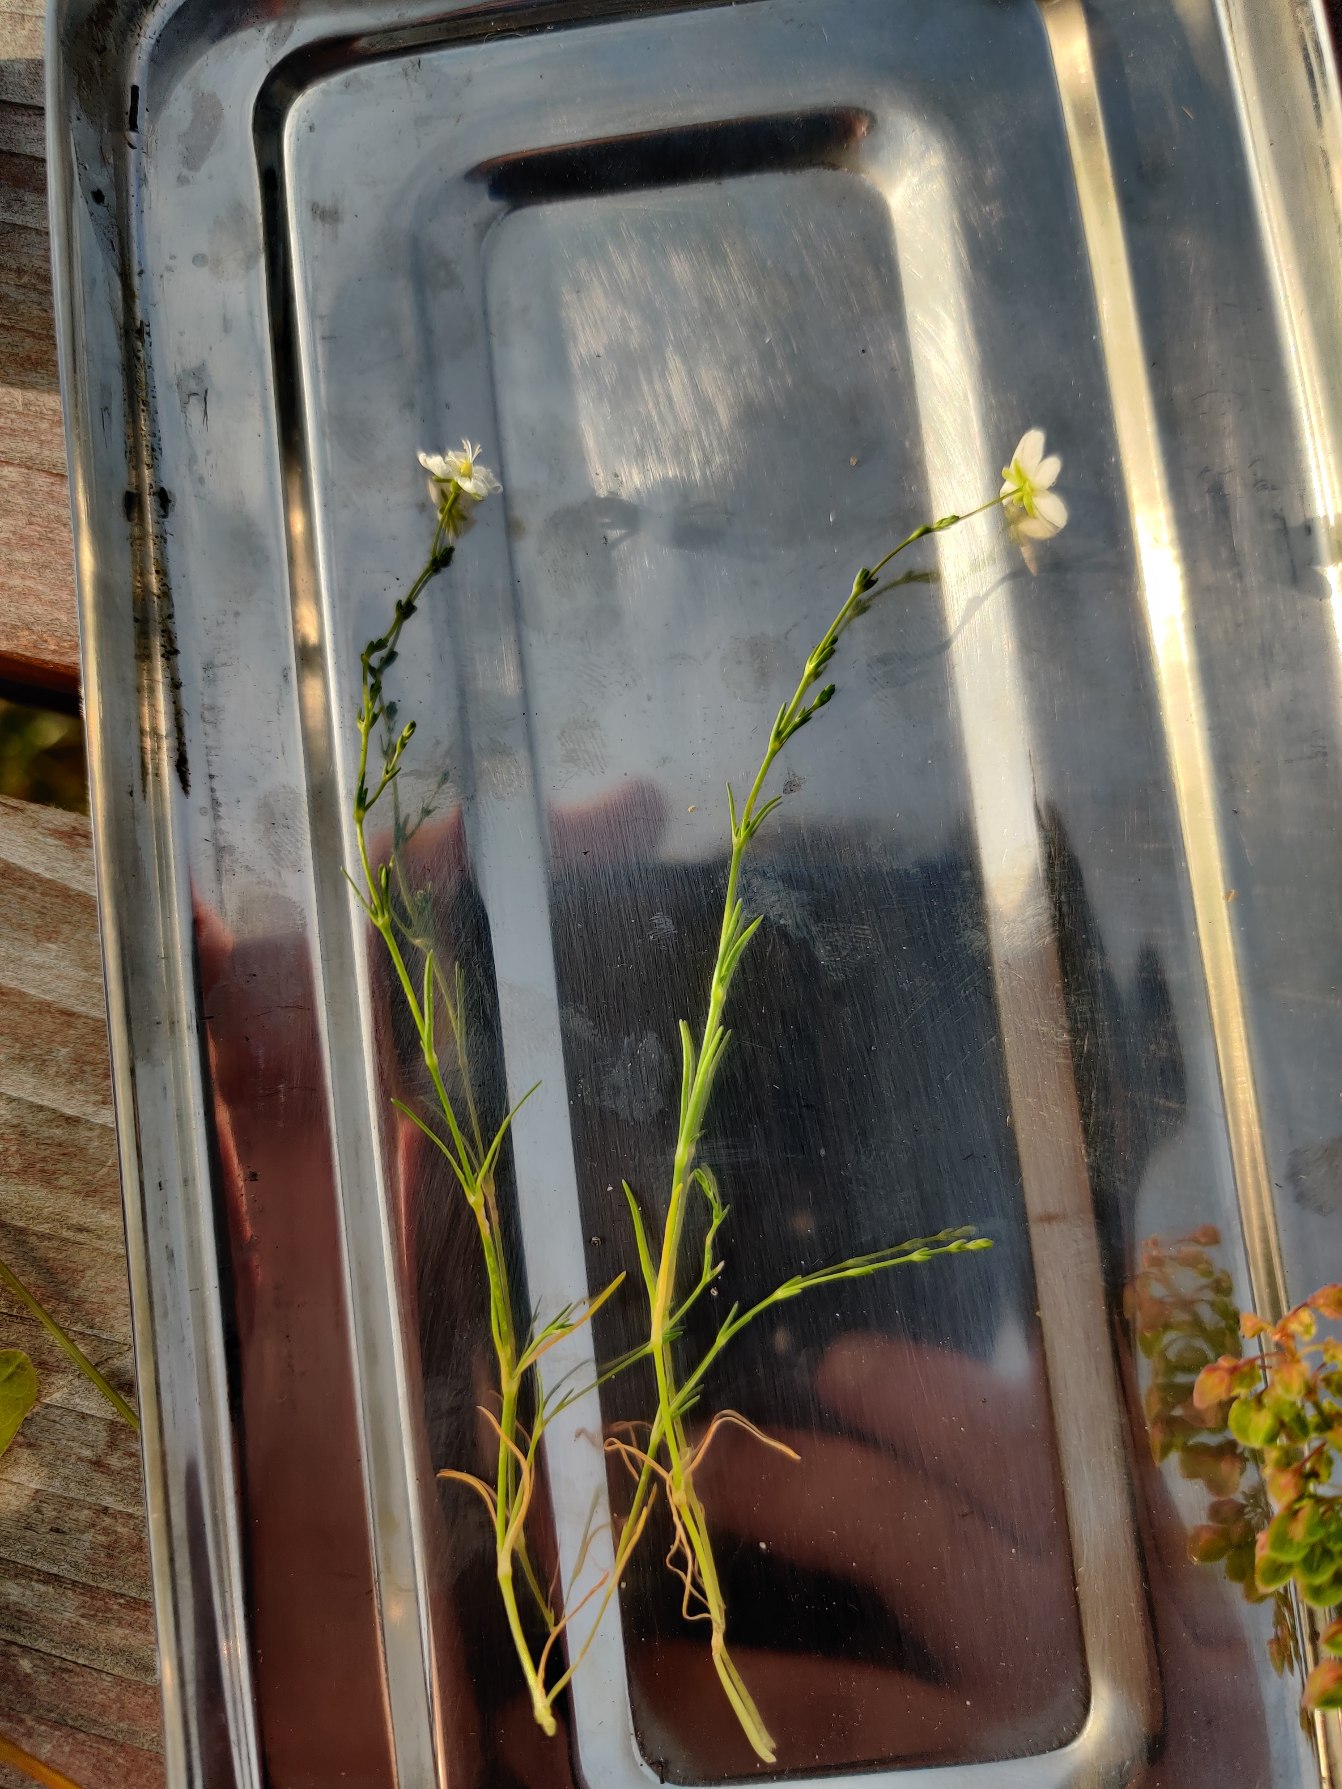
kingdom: Plantae
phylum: Tracheophyta
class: Magnoliopsida
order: Caryophyllales
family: Caryophyllaceae
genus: Sagina
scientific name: Sagina nodosa
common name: Knude-firling
